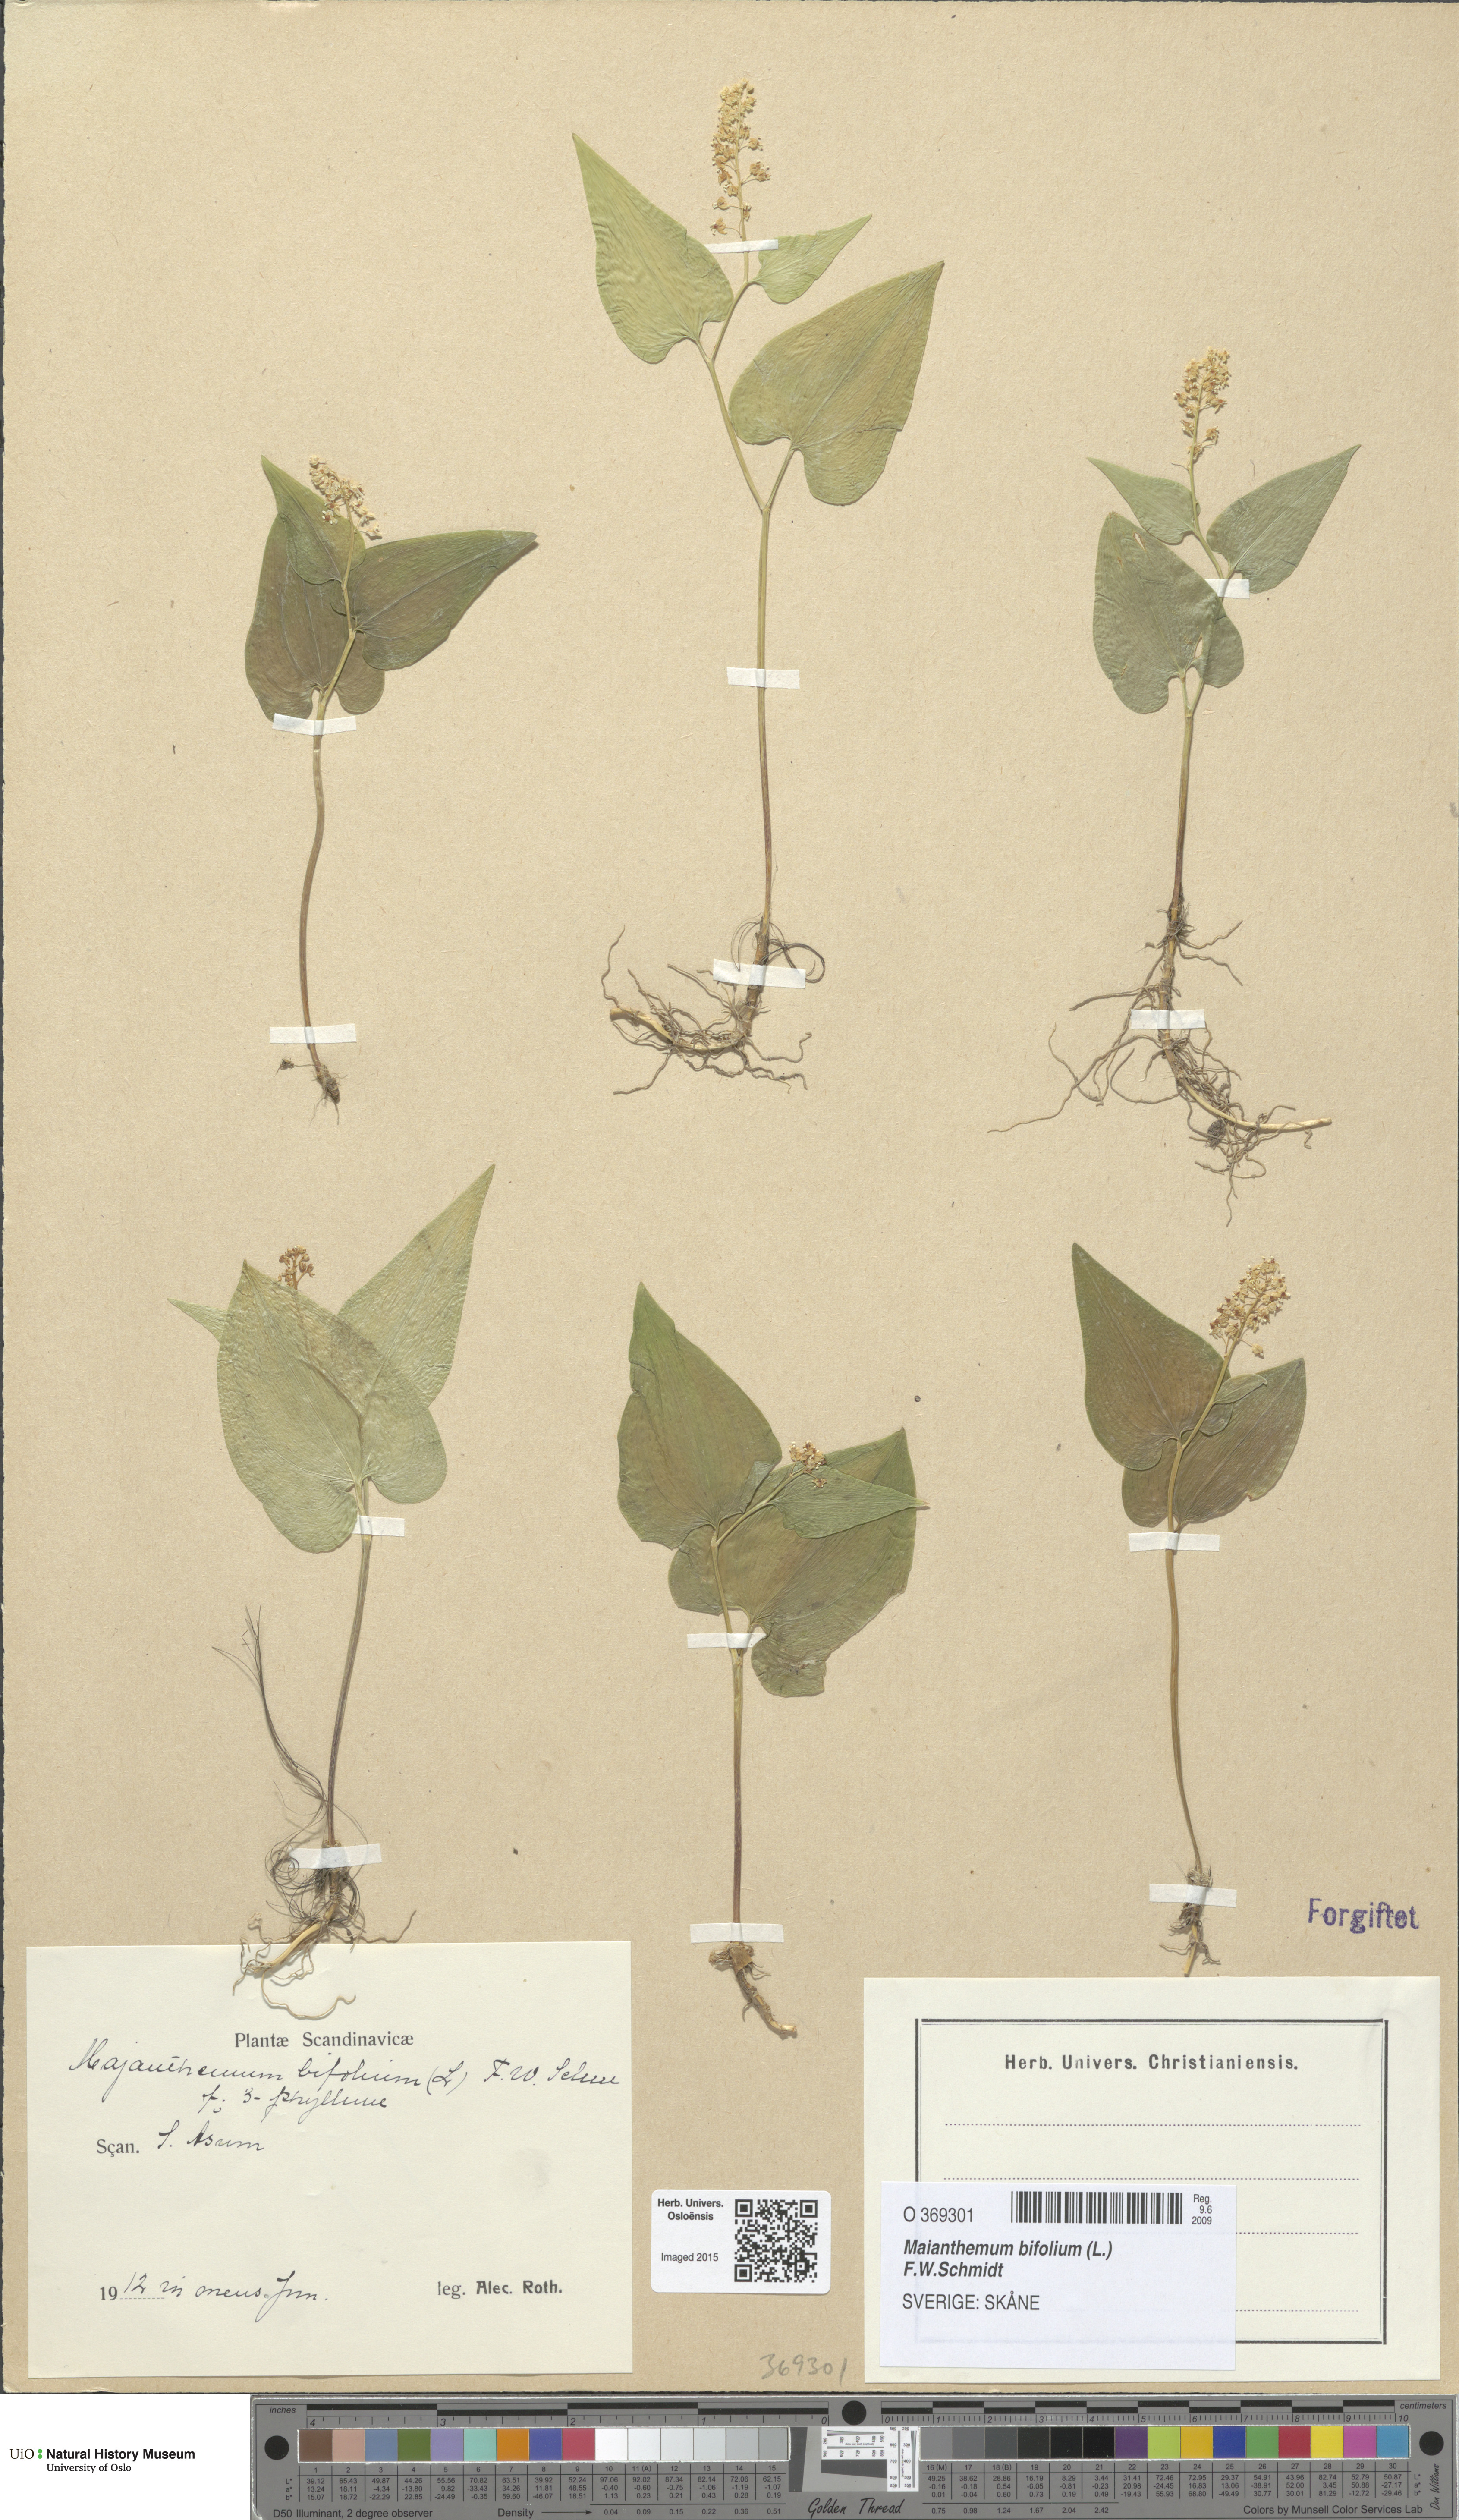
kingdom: Plantae
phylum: Tracheophyta
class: Liliopsida
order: Asparagales
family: Asparagaceae
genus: Maianthemum
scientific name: Maianthemum bifolium
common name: May lily
